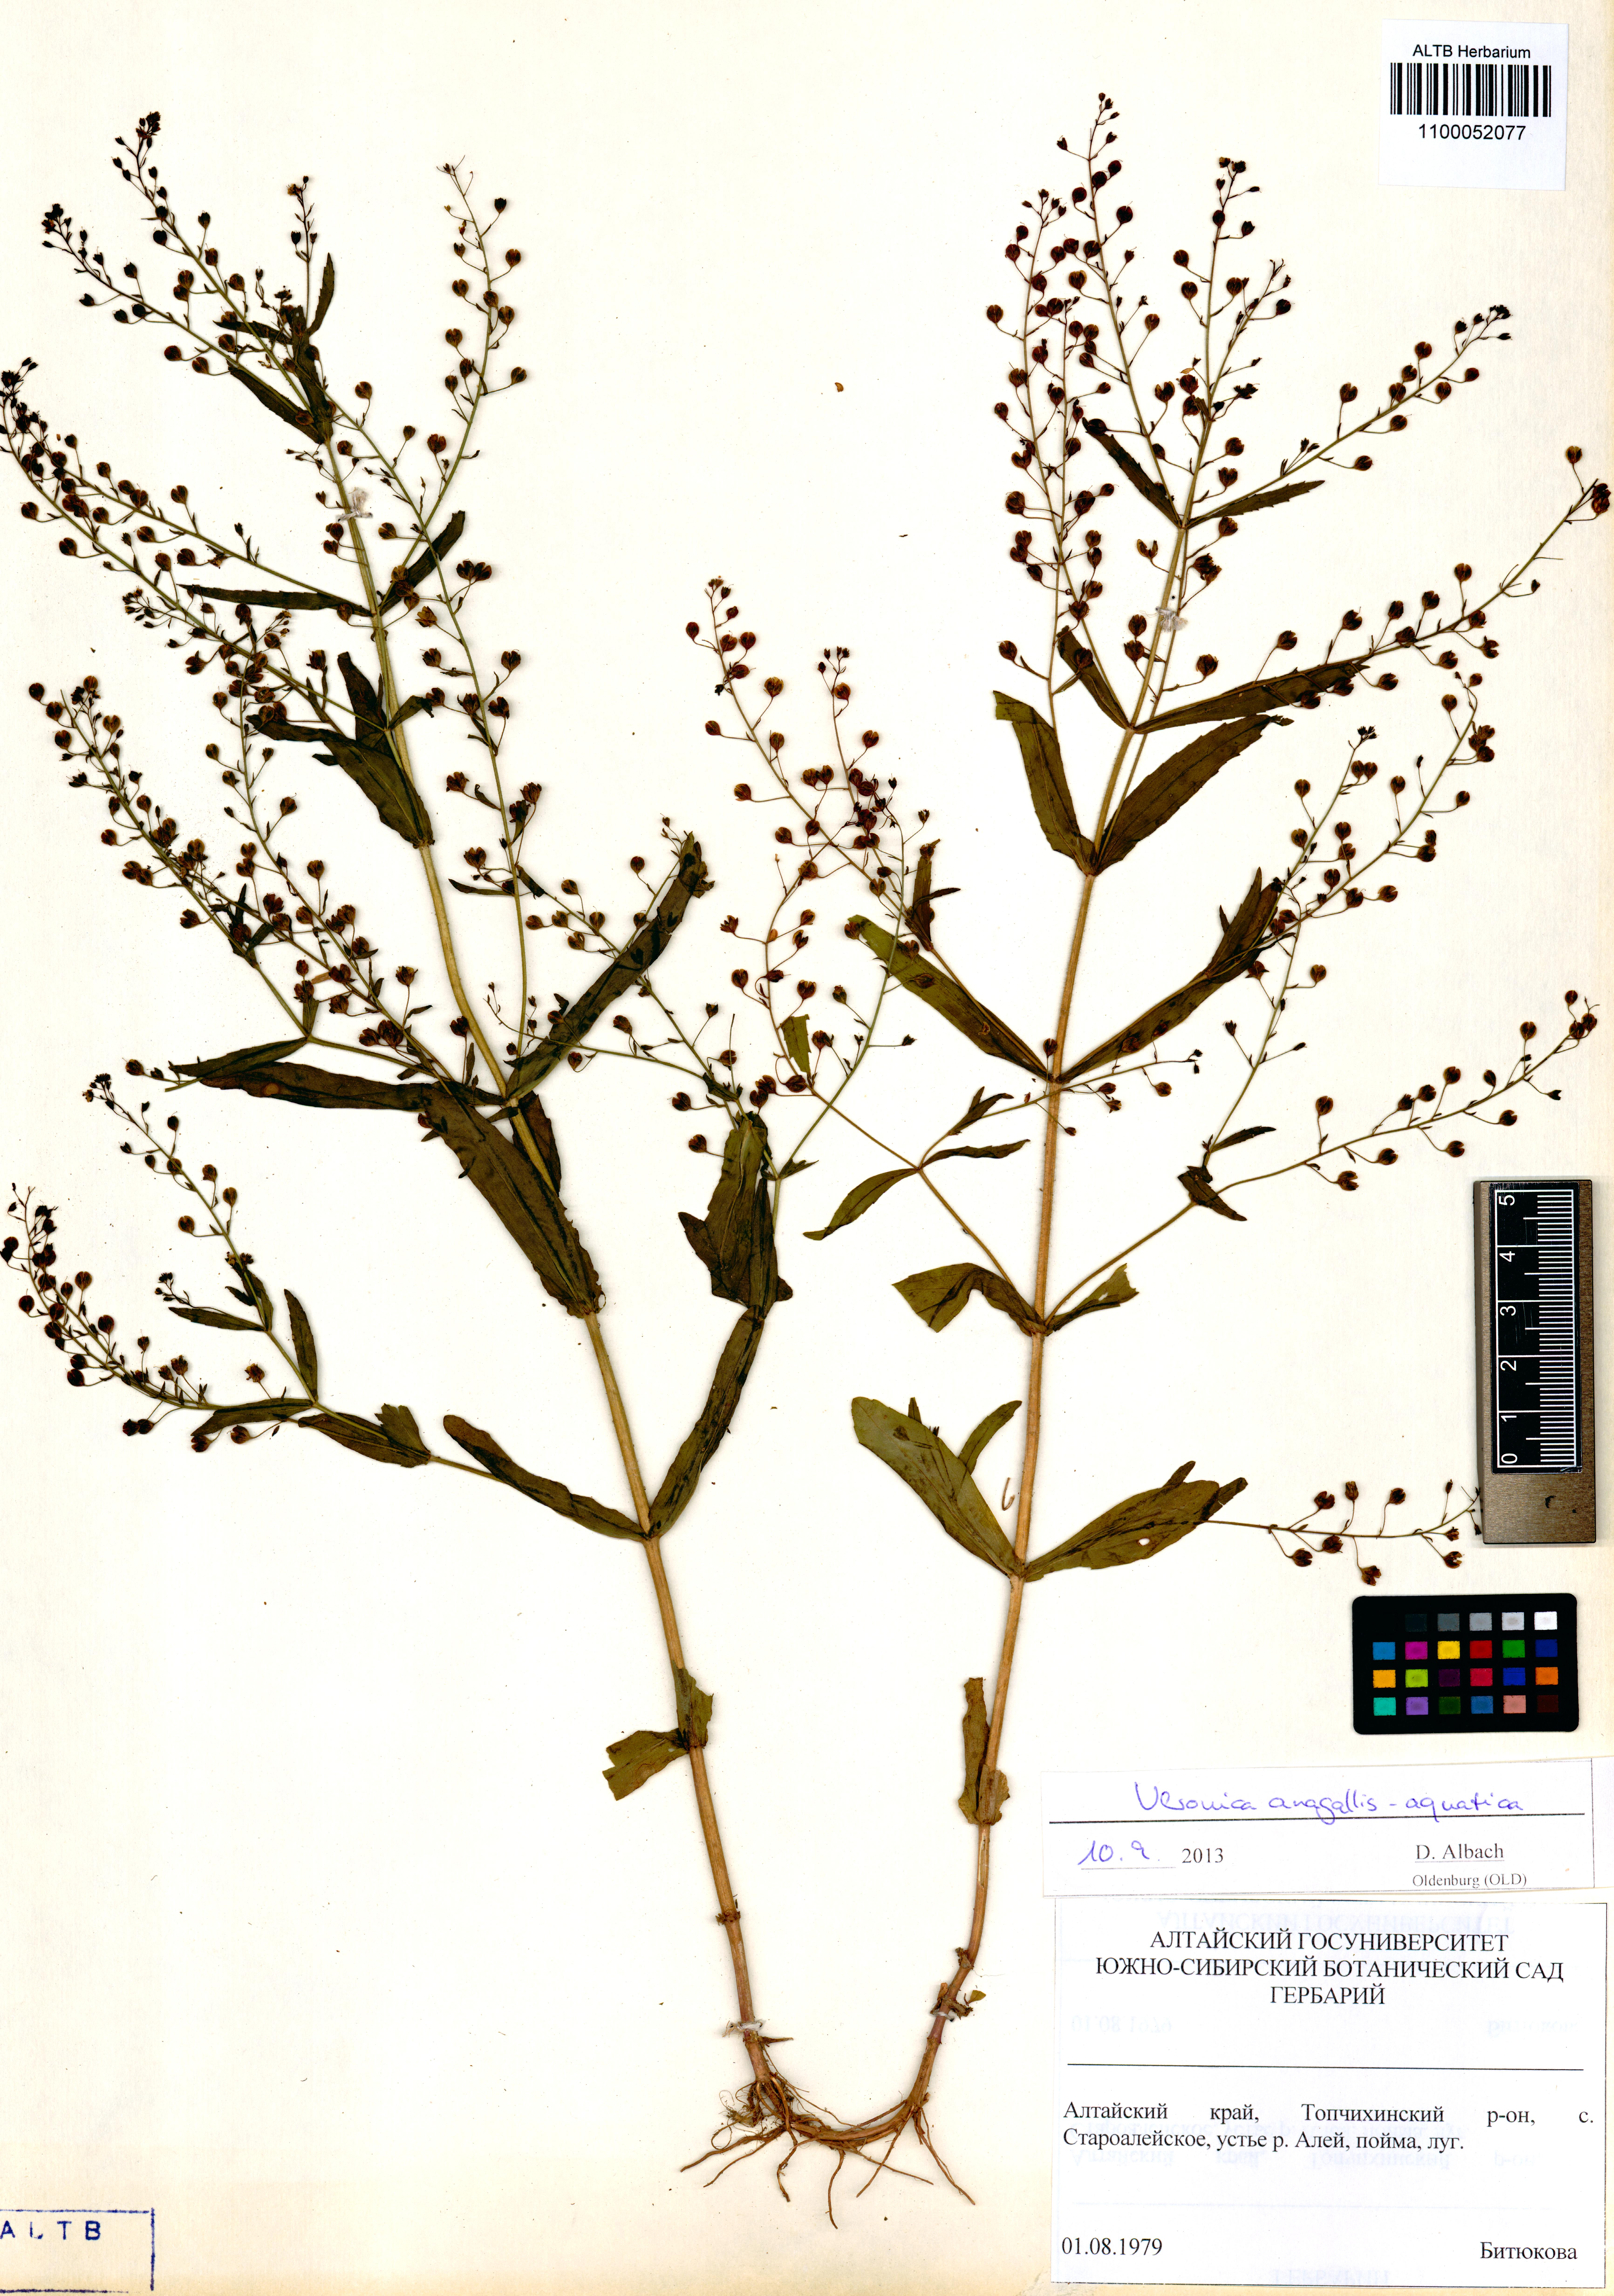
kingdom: Plantae
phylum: Tracheophyta
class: Magnoliopsida
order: Lamiales
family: Plantaginaceae
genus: Veronica
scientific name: Veronica anagallis-aquatica
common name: Water speedwell
